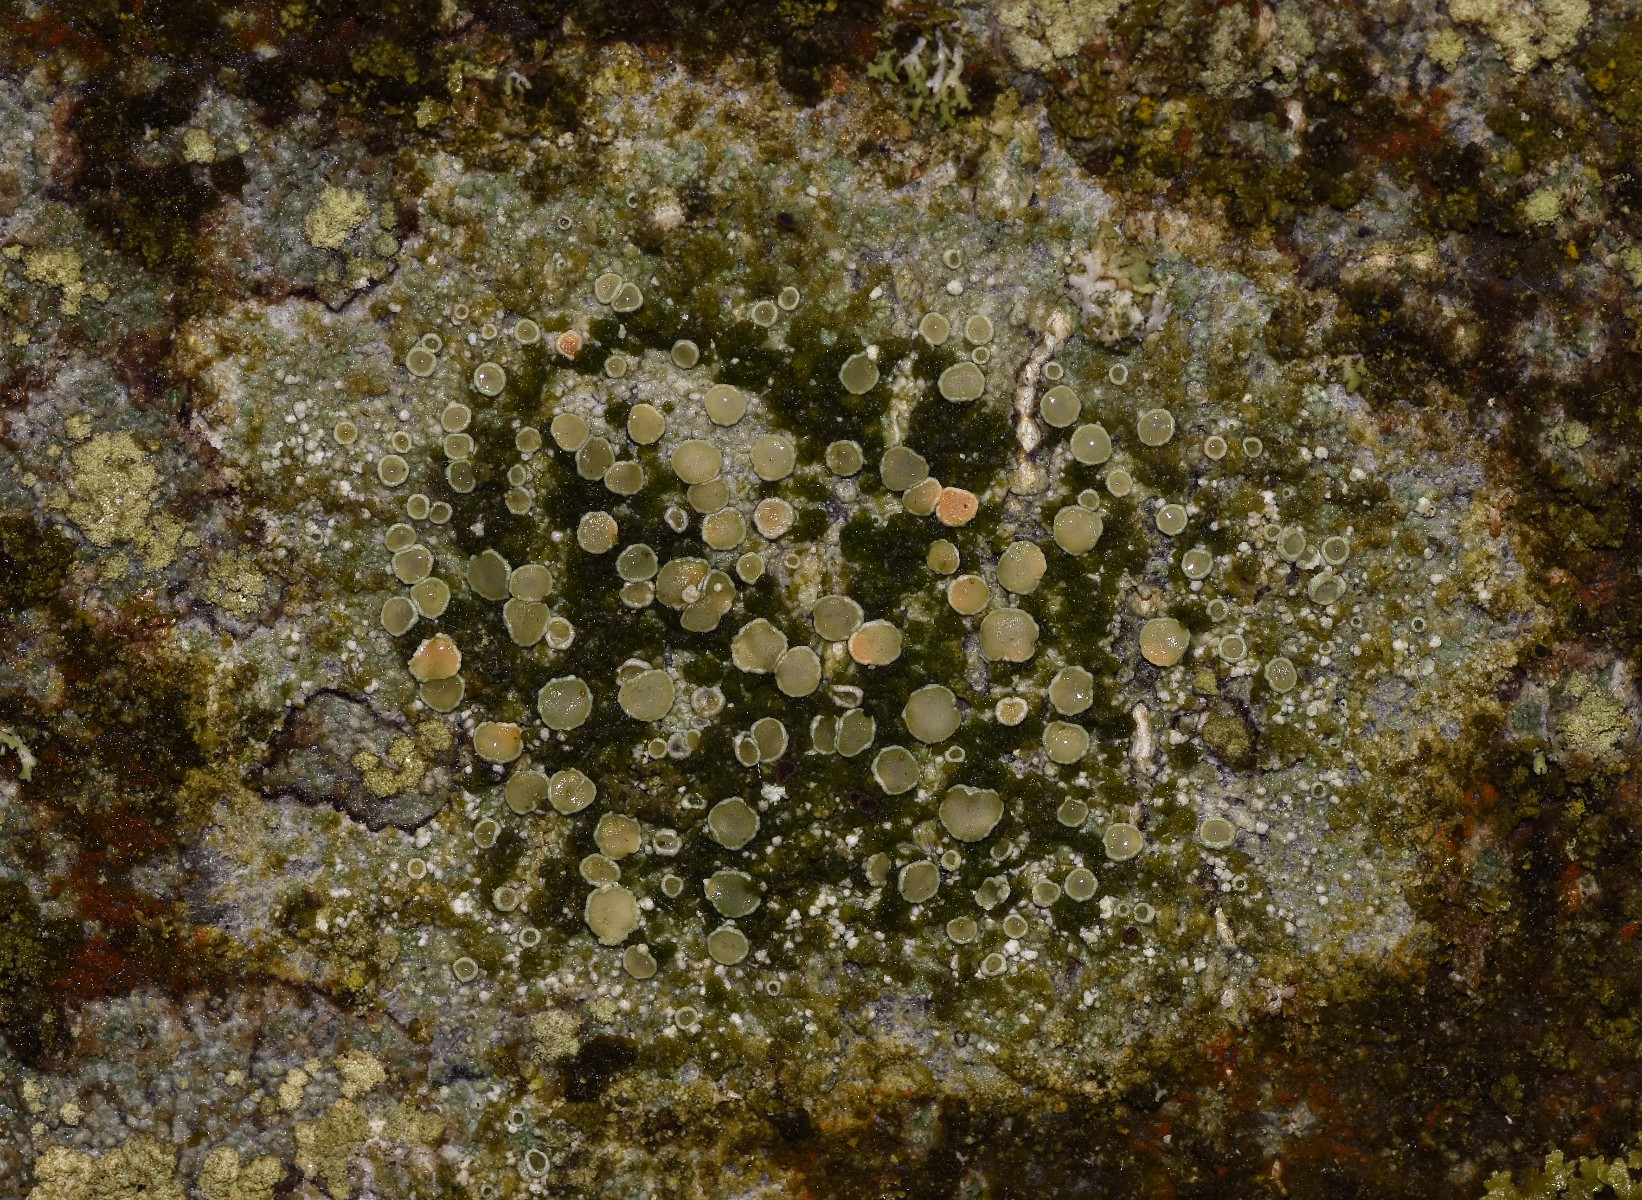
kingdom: Fungi
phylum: Ascomycota
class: Lecanoromycetes
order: Lecanorales
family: Lecanoraceae
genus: Lecanora
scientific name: Lecanora chlarotera
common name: brun kantskivelav
